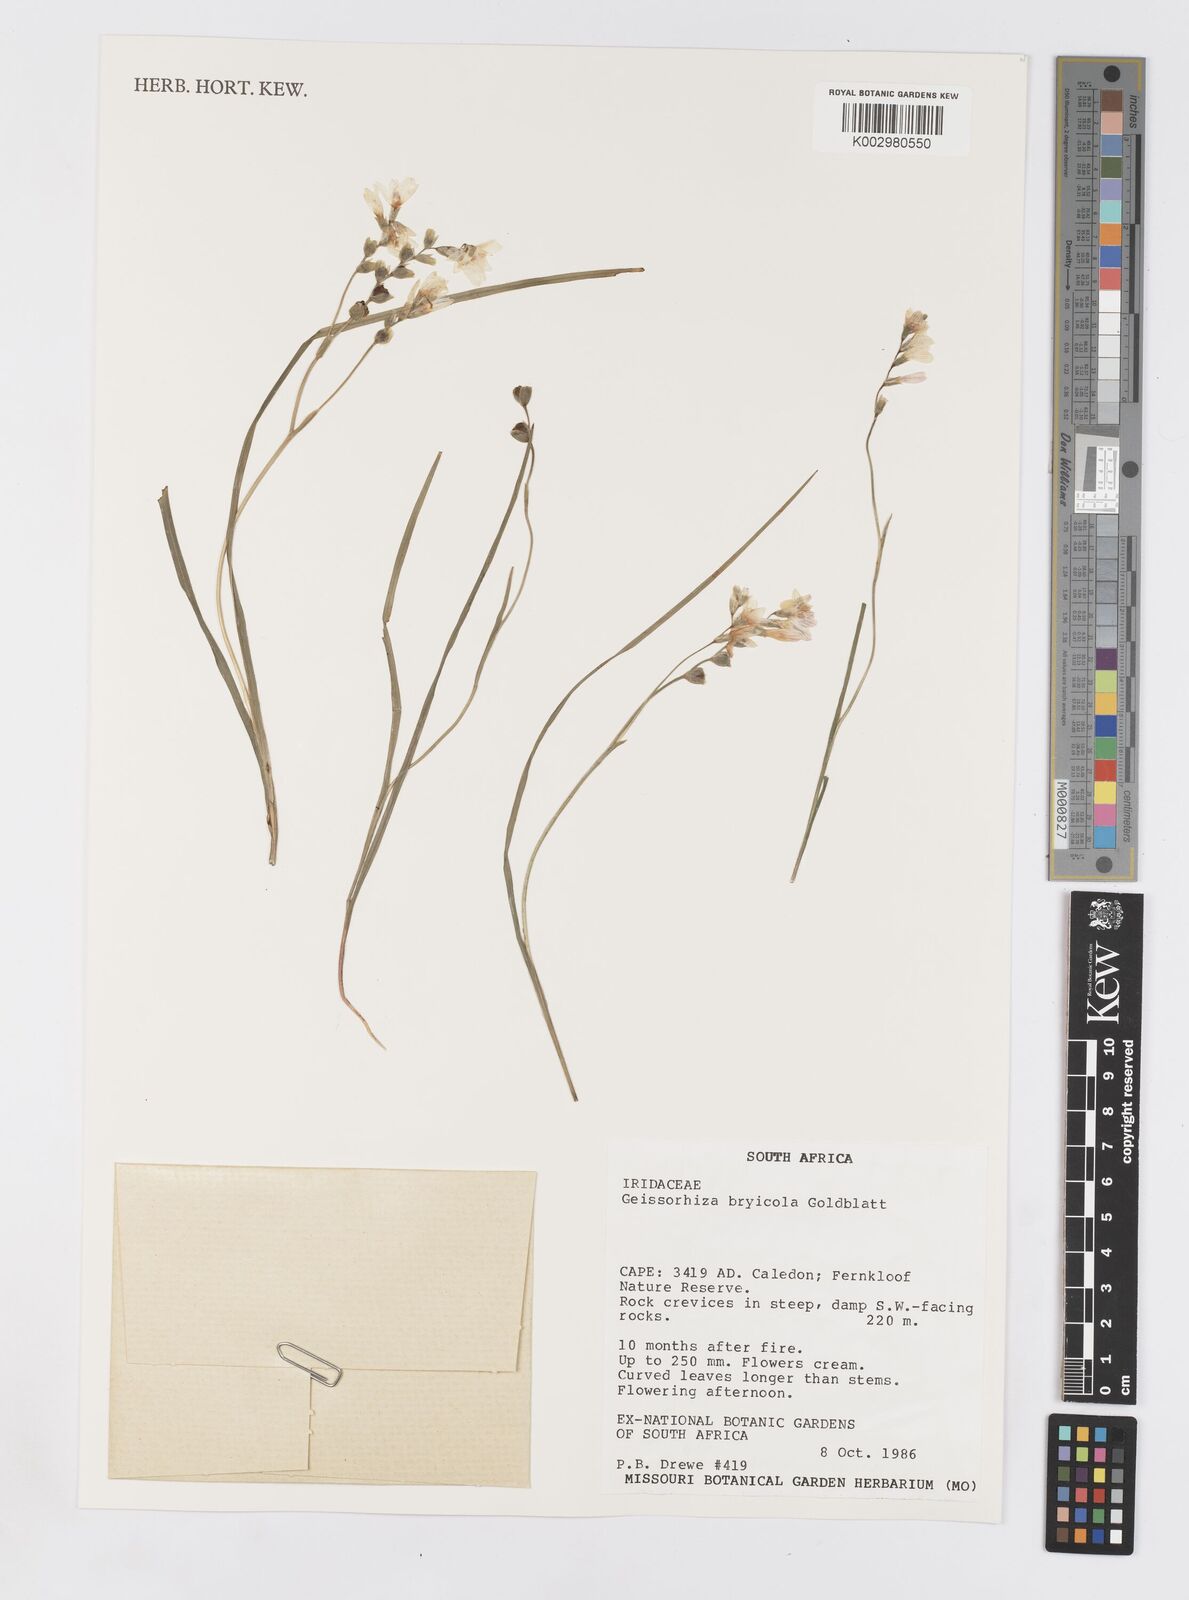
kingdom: Plantae
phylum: Tracheophyta
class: Liliopsida
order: Asparagales
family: Iridaceae
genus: Geissorhiza
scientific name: Geissorhiza bryicola
